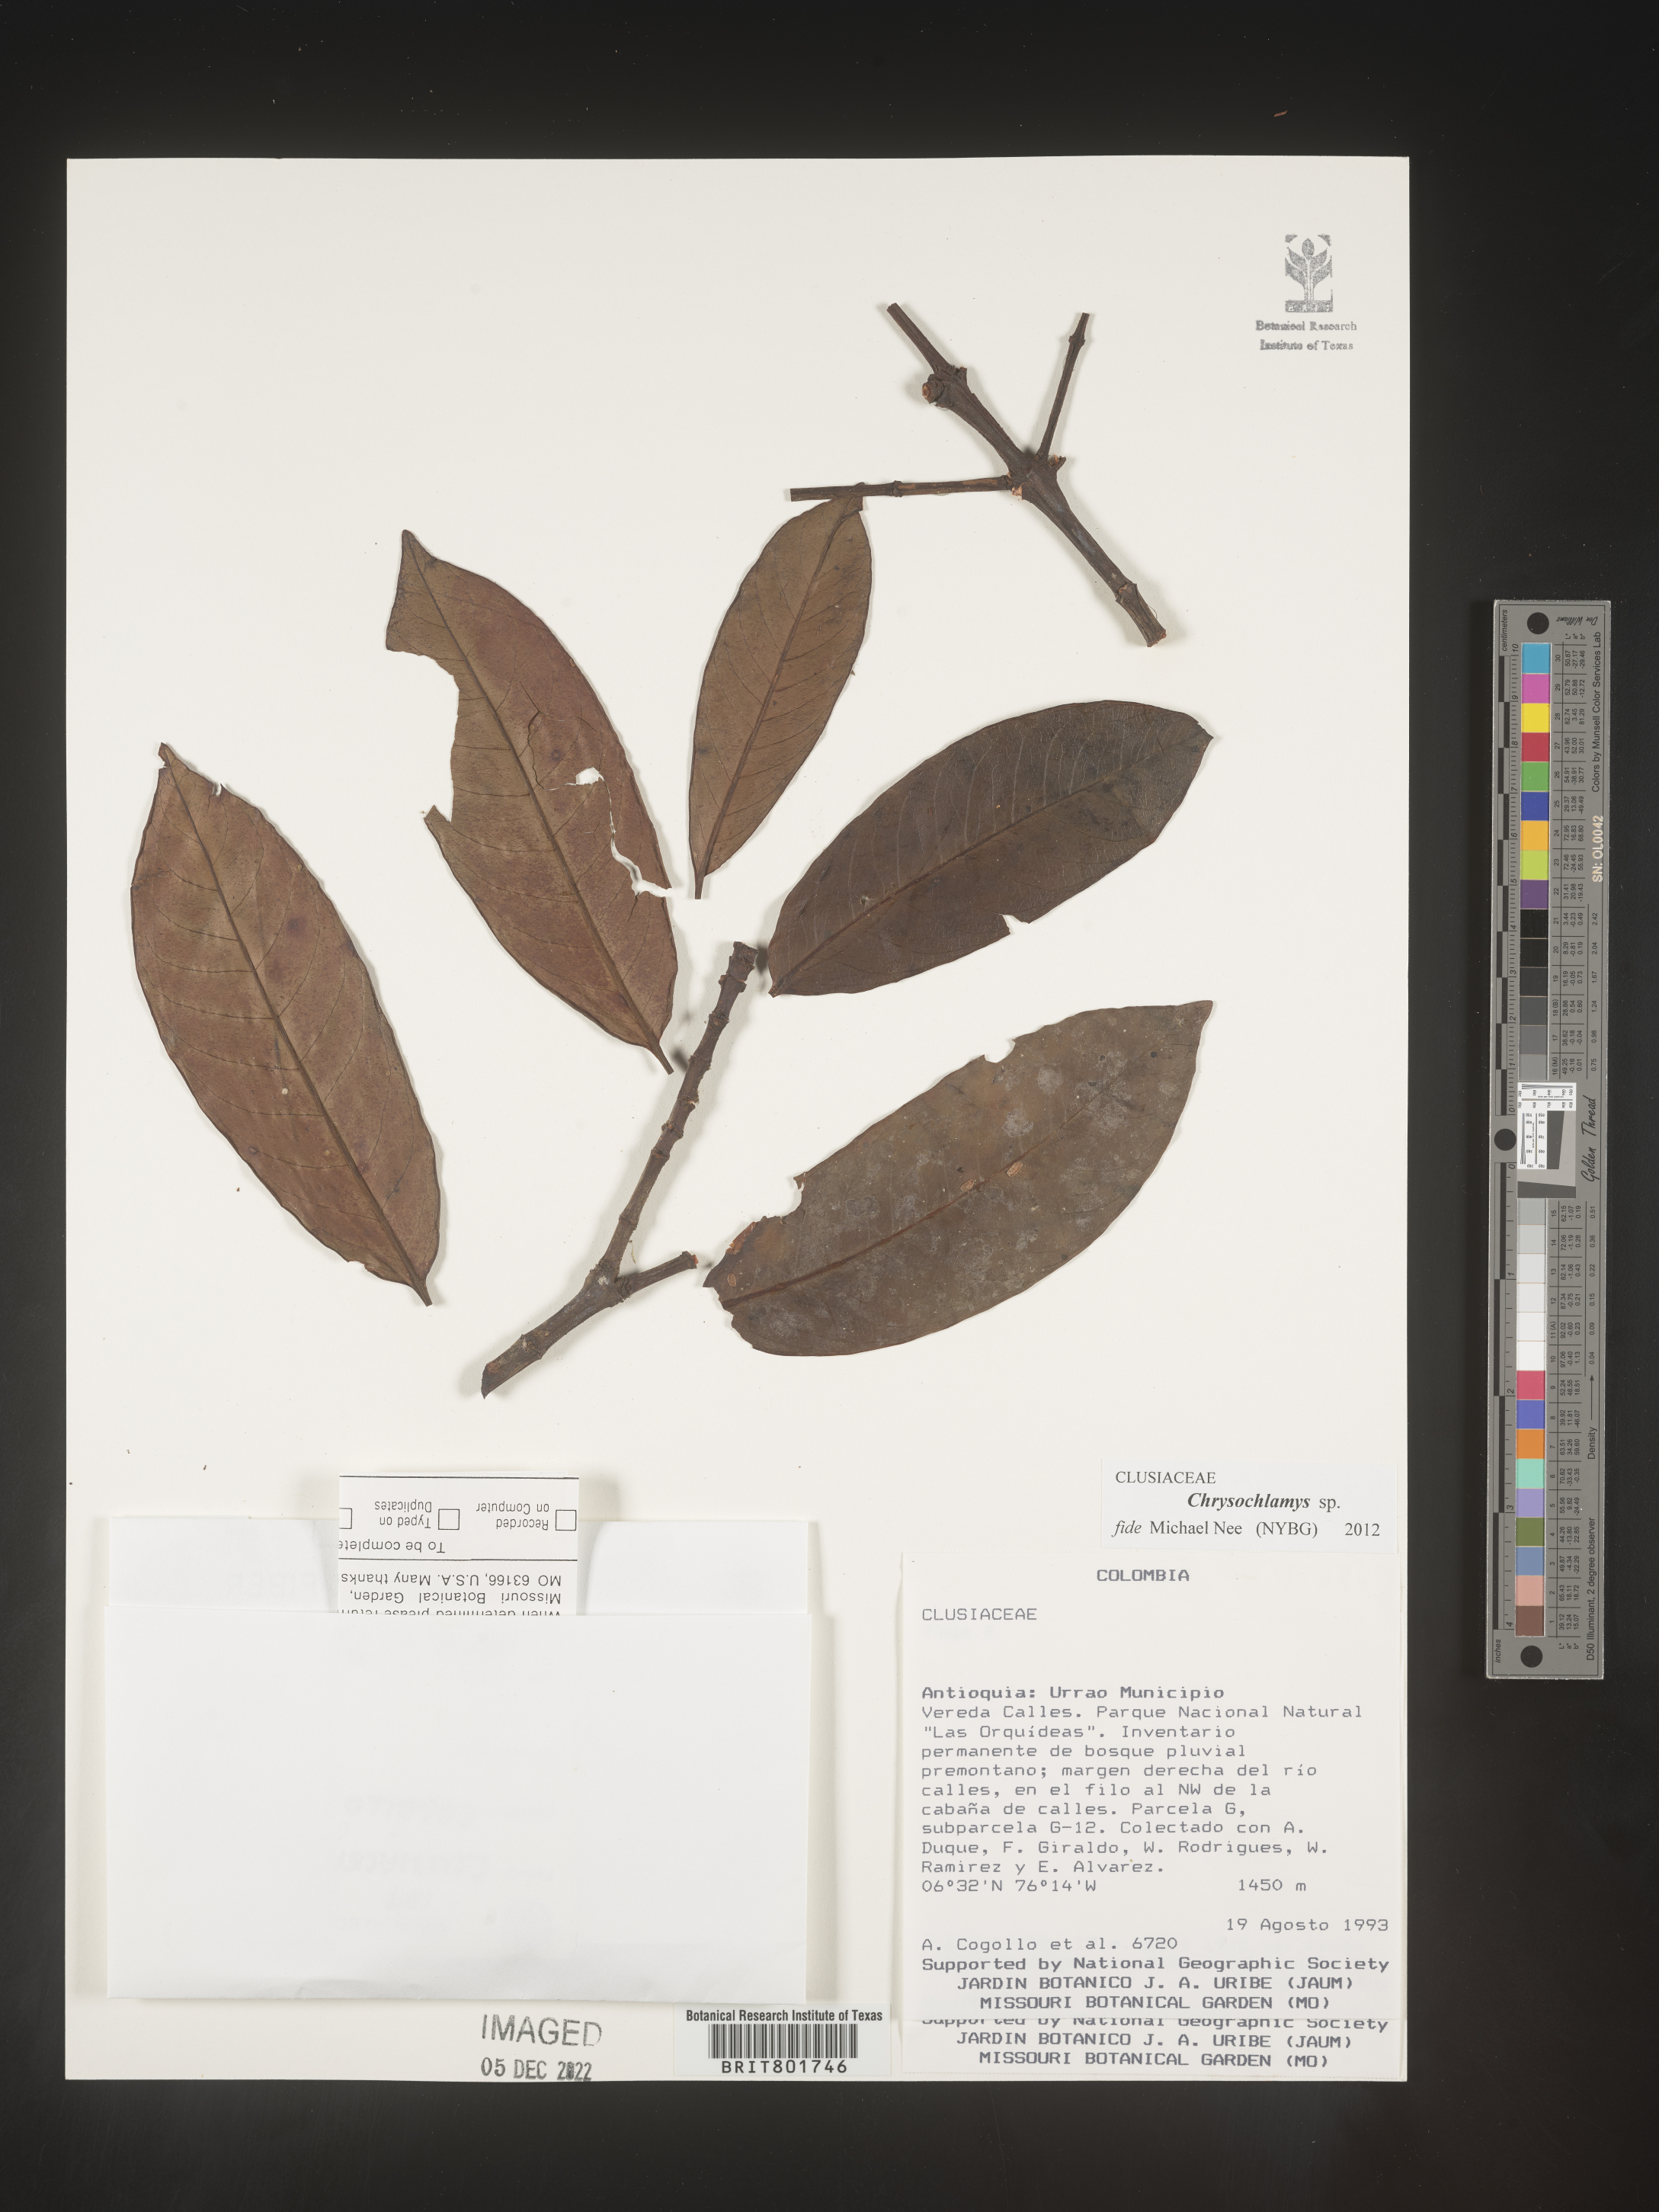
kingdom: Plantae
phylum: Tracheophyta
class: Magnoliopsida
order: Malpighiales
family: Clusiaceae
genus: Chrysochlamys
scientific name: Chrysochlamys
